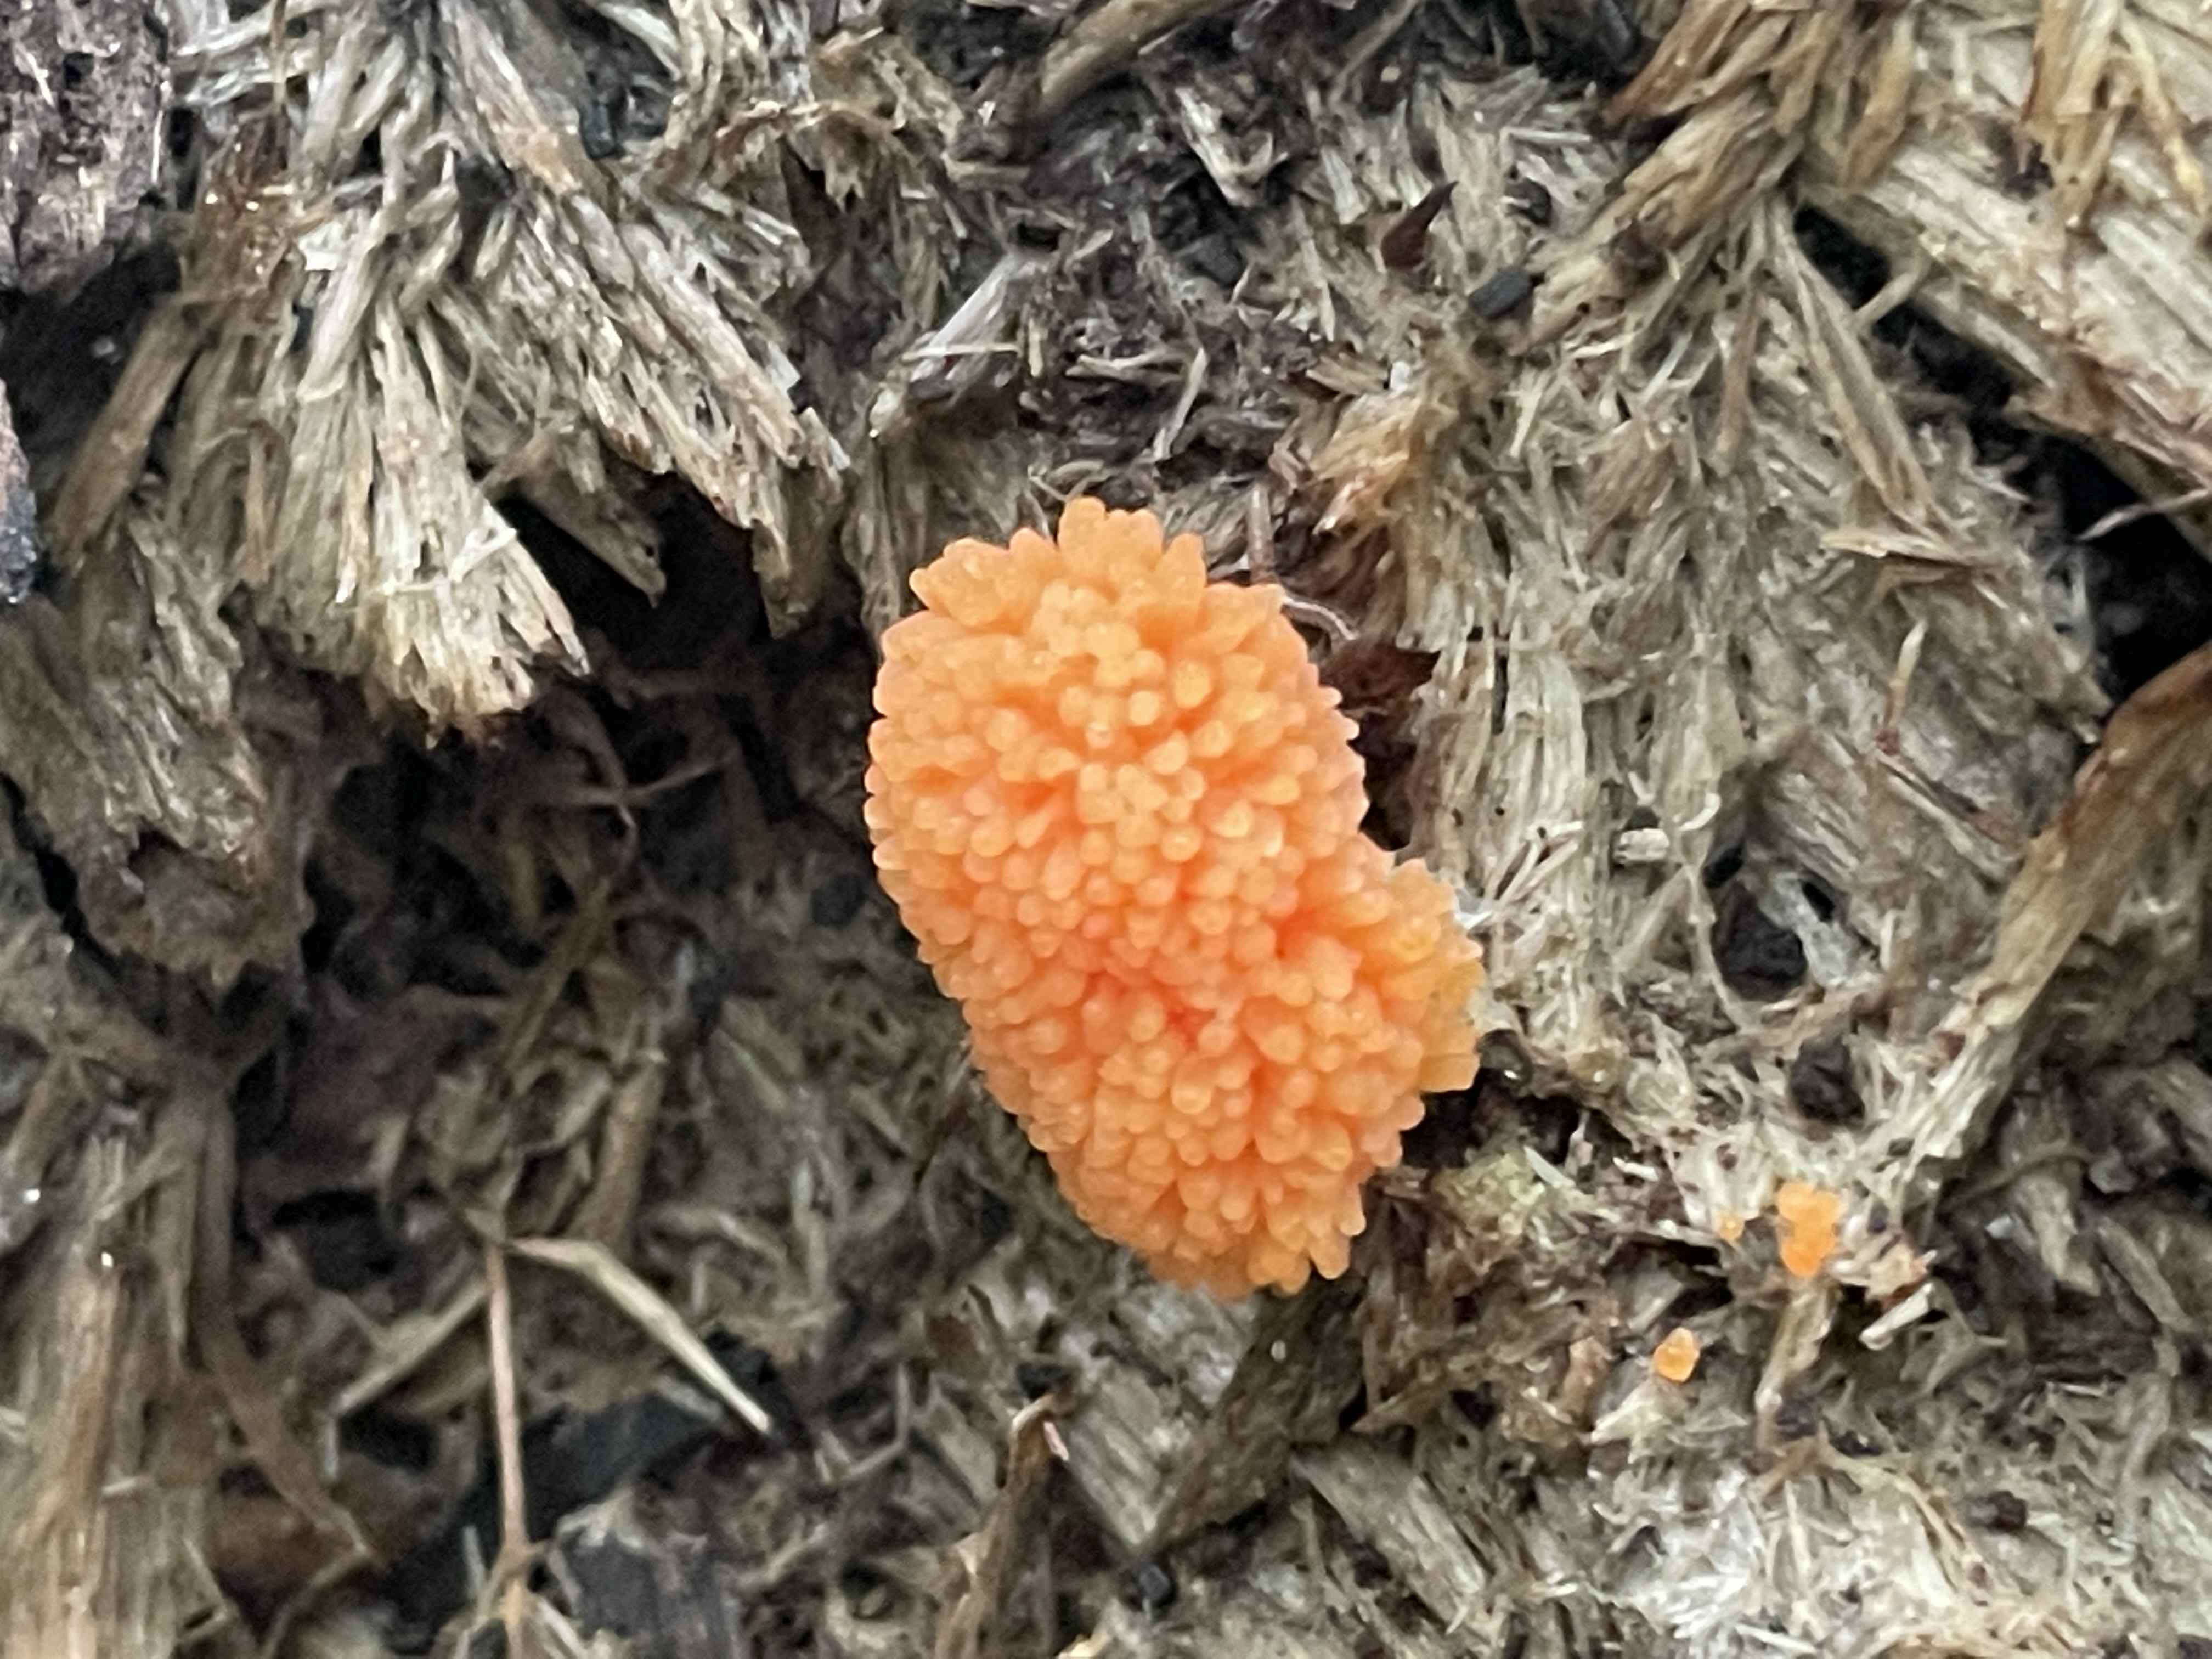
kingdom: Protozoa
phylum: Mycetozoa
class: Myxomycetes
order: Cribrariales
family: Tubiferaceae
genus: Tubifera
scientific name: Tubifera ferruginosa
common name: kanel-støvrør
